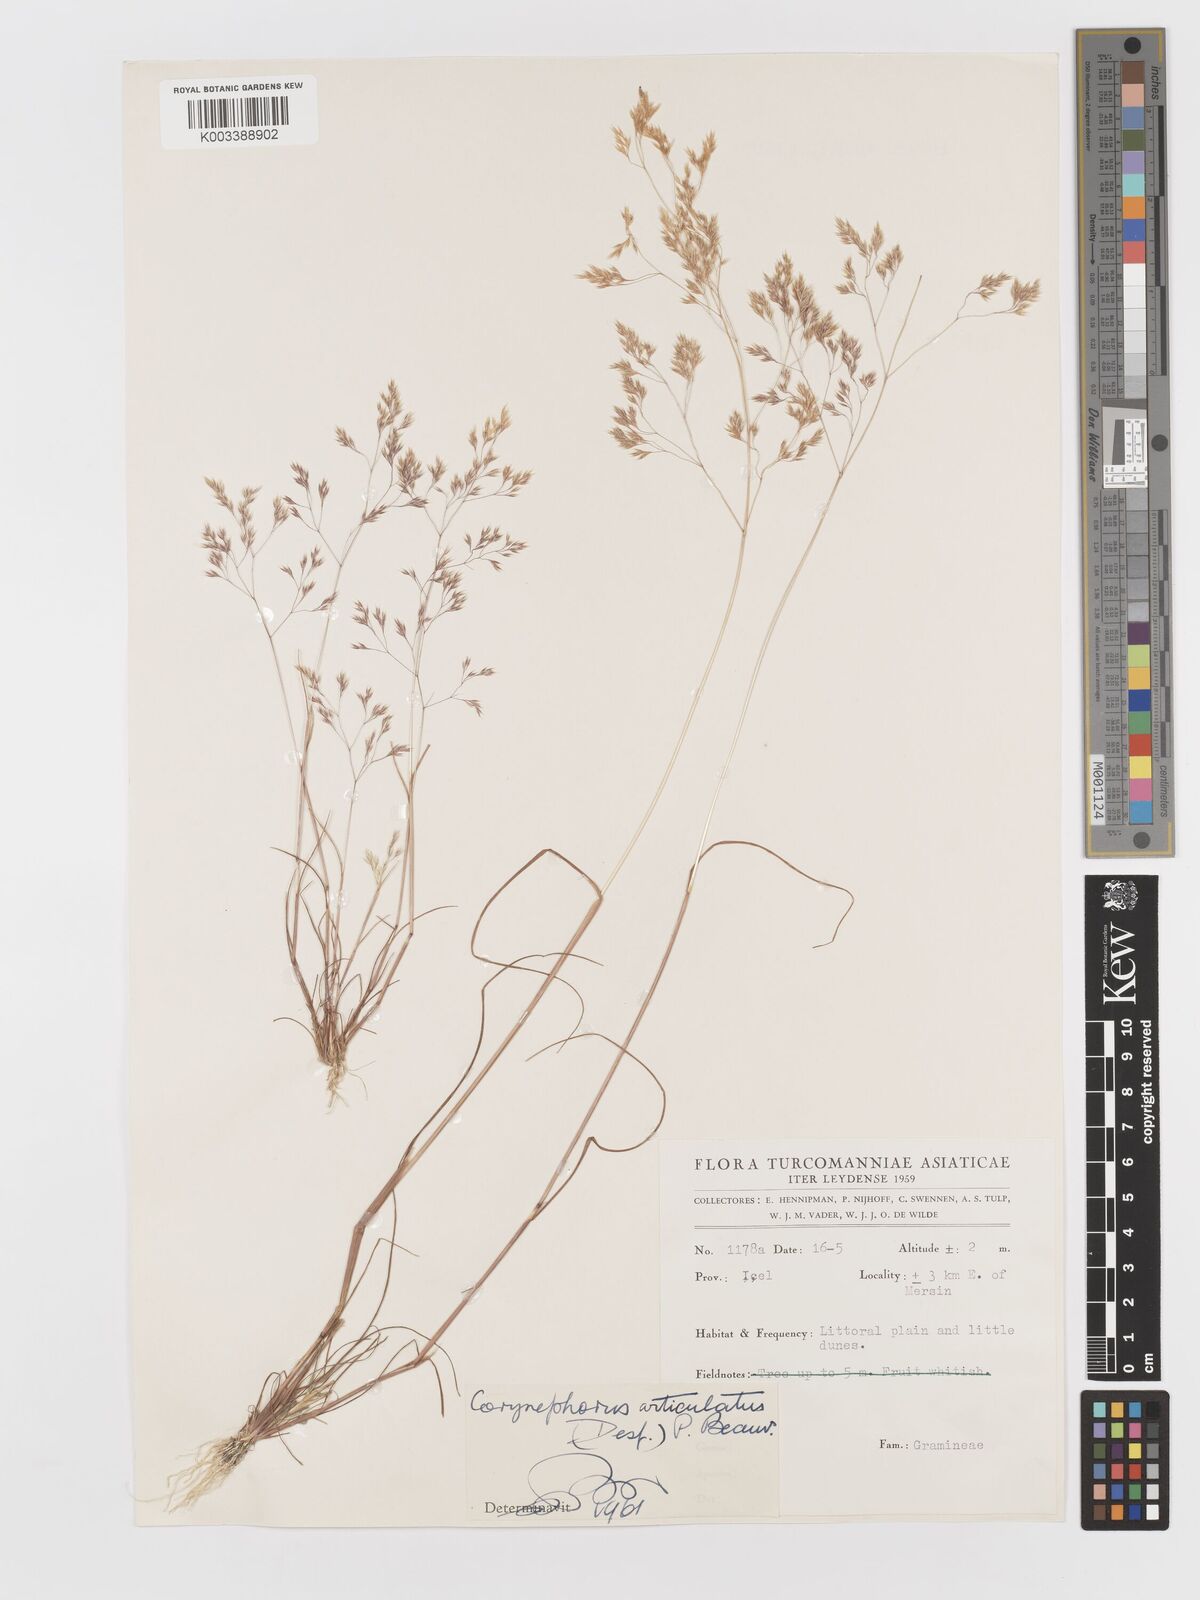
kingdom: Plantae
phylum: Tracheophyta
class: Liliopsida
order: Poales
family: Poaceae
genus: Corynephorus
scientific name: Corynephorus divaricatus
